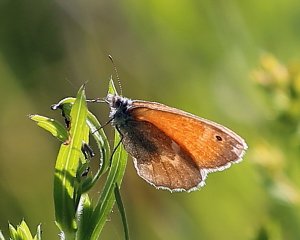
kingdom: Animalia
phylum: Arthropoda
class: Insecta
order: Lepidoptera
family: Nymphalidae
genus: Coenonympha
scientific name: Coenonympha tullia
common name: Large Heath
